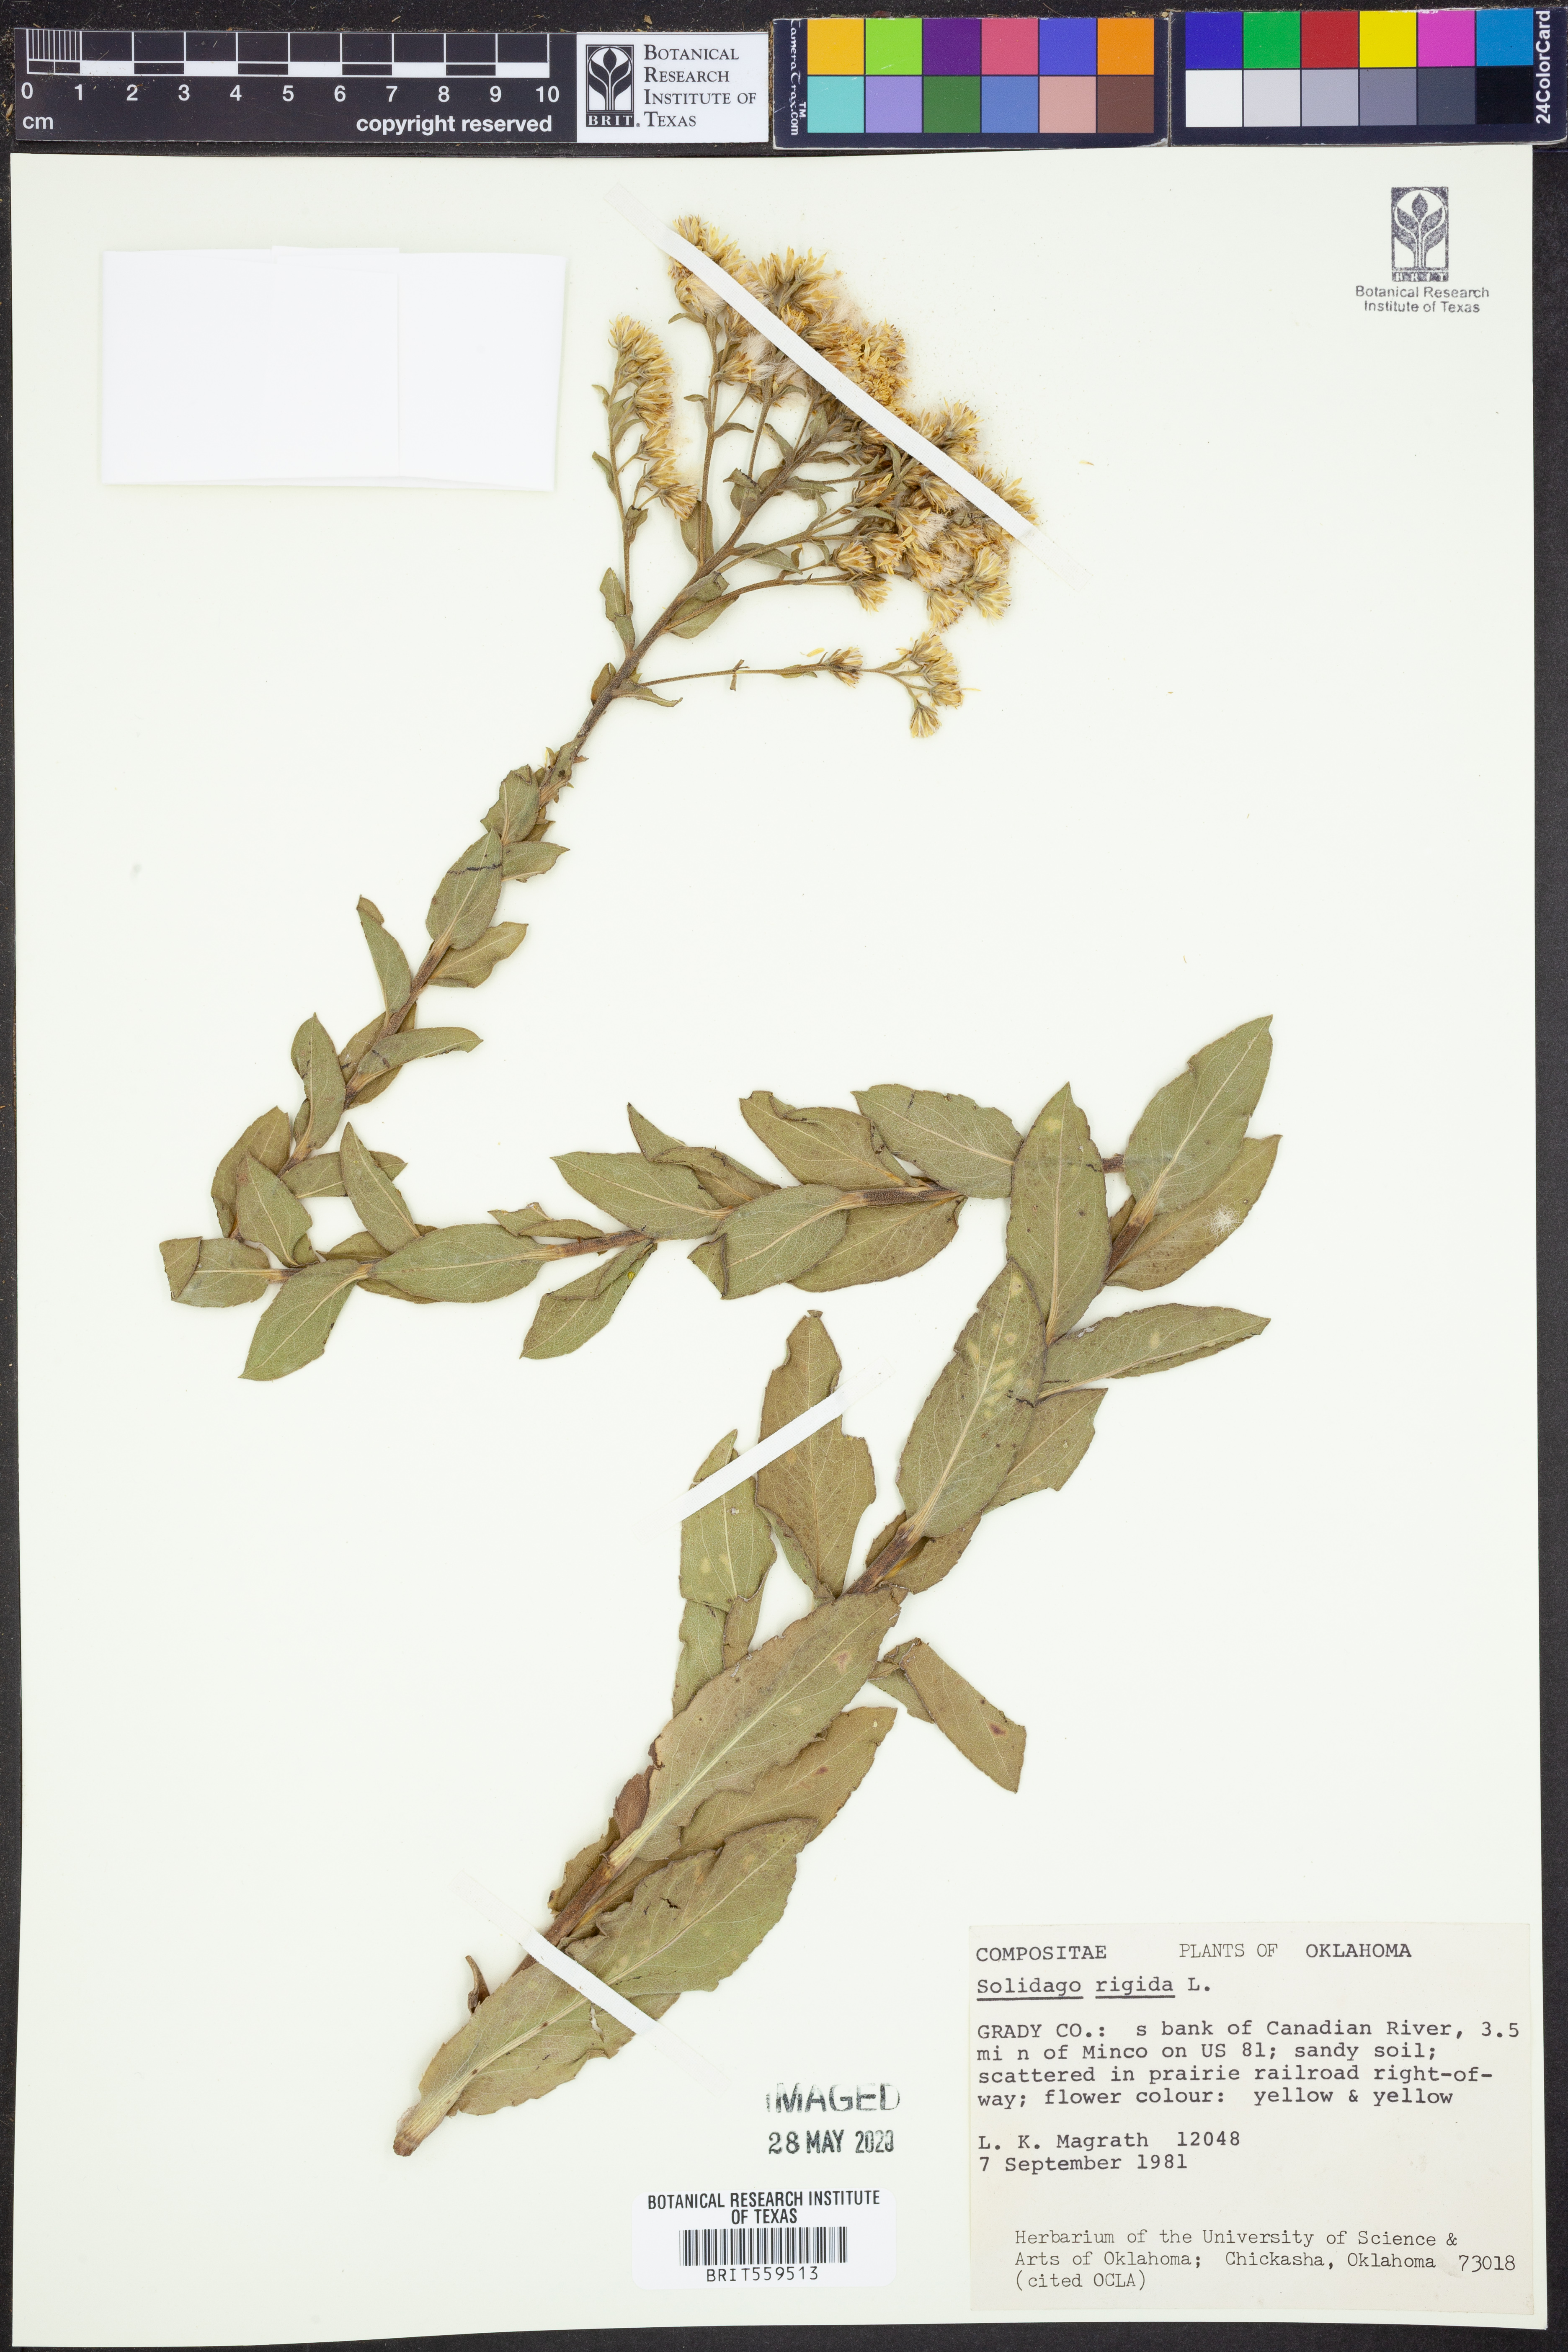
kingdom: Plantae
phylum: Tracheophyta
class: Magnoliopsida
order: Asterales
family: Asteraceae
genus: Solidago
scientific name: Solidago rigida
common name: Rigid goldenrod
